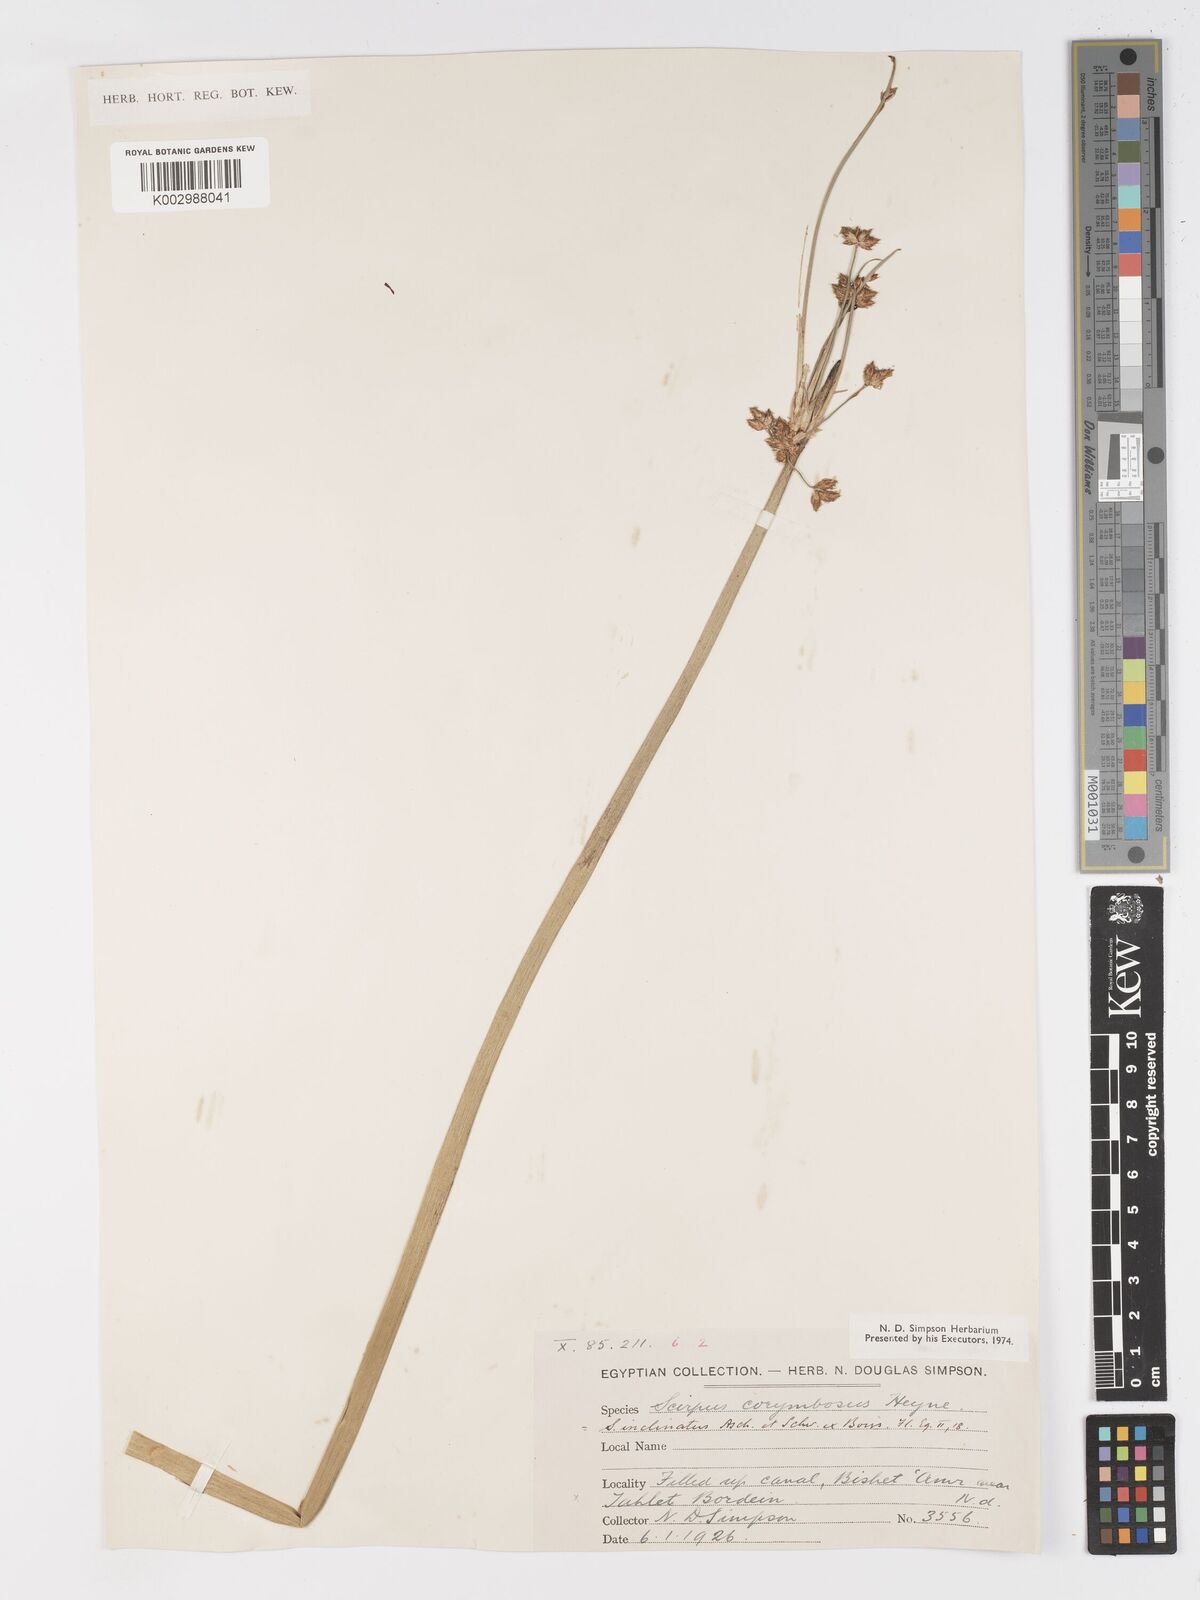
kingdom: Plantae
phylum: Tracheophyta
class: Liliopsida
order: Poales
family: Cyperaceae
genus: Schoenoplectiella
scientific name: Schoenoplectiella corymbosa
